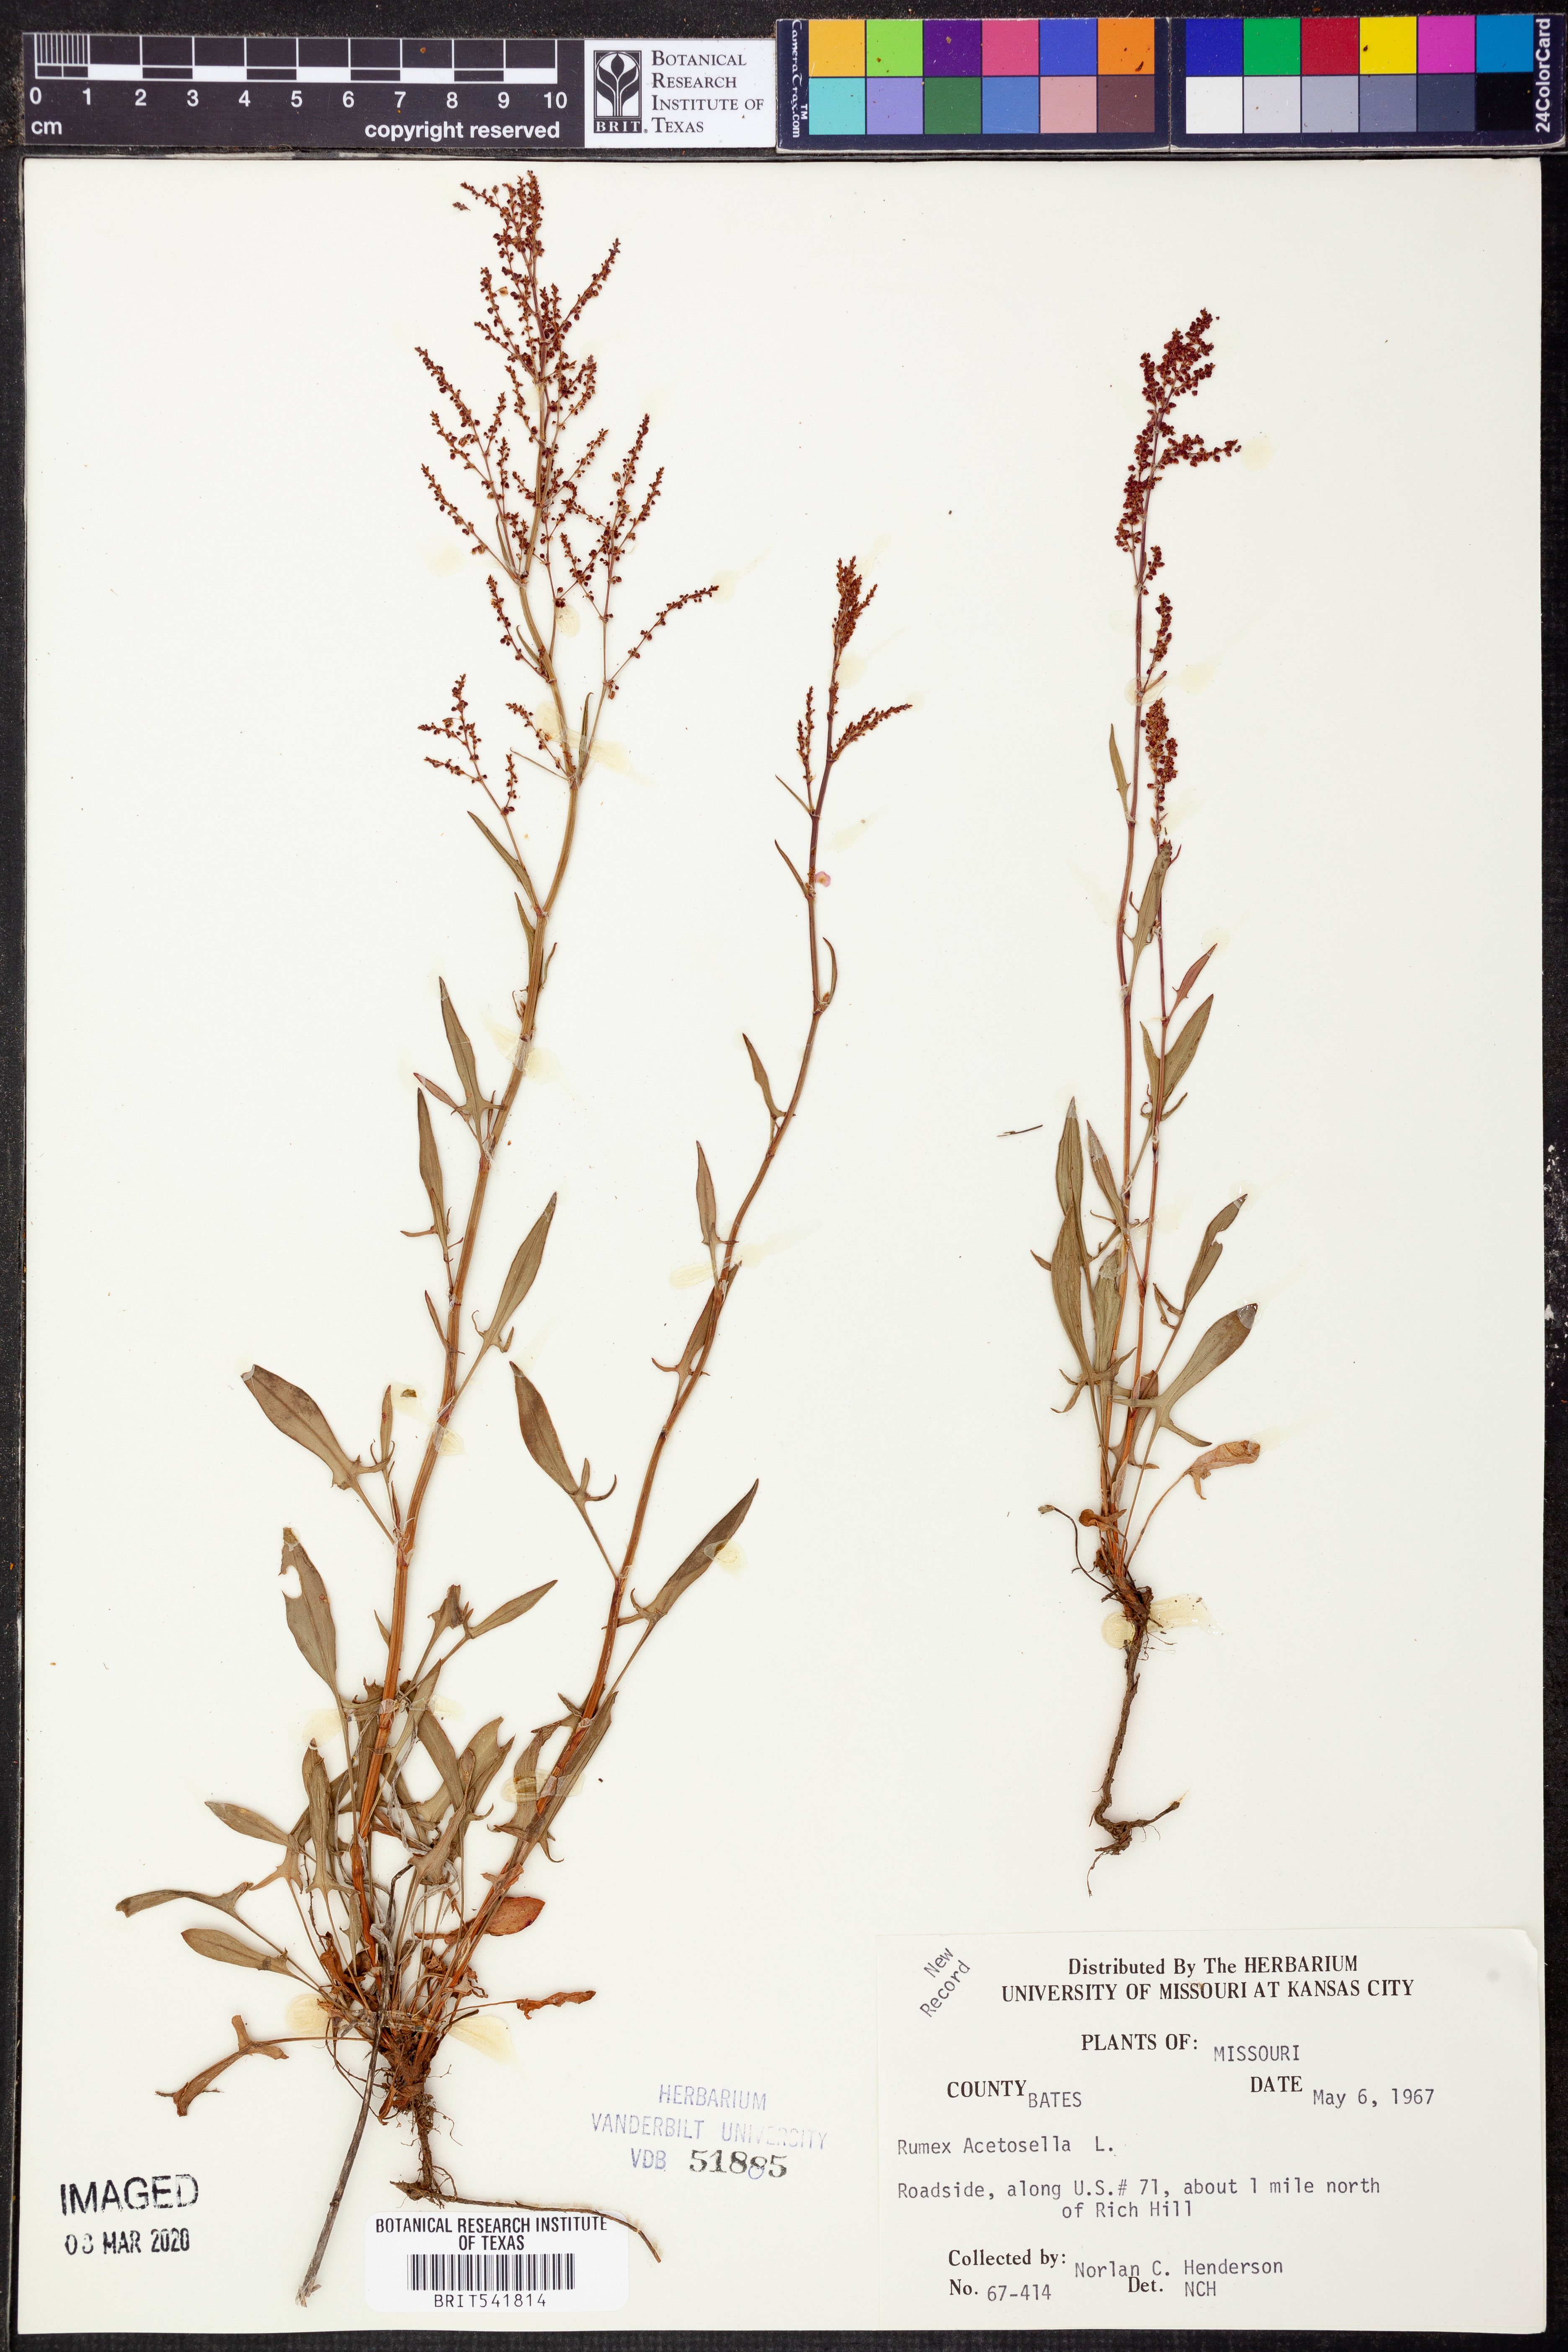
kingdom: Plantae
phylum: Tracheophyta
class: Magnoliopsida
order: Caryophyllales
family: Polygonaceae
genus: Rumex
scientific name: Rumex acetosella
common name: Common sheep sorrel
